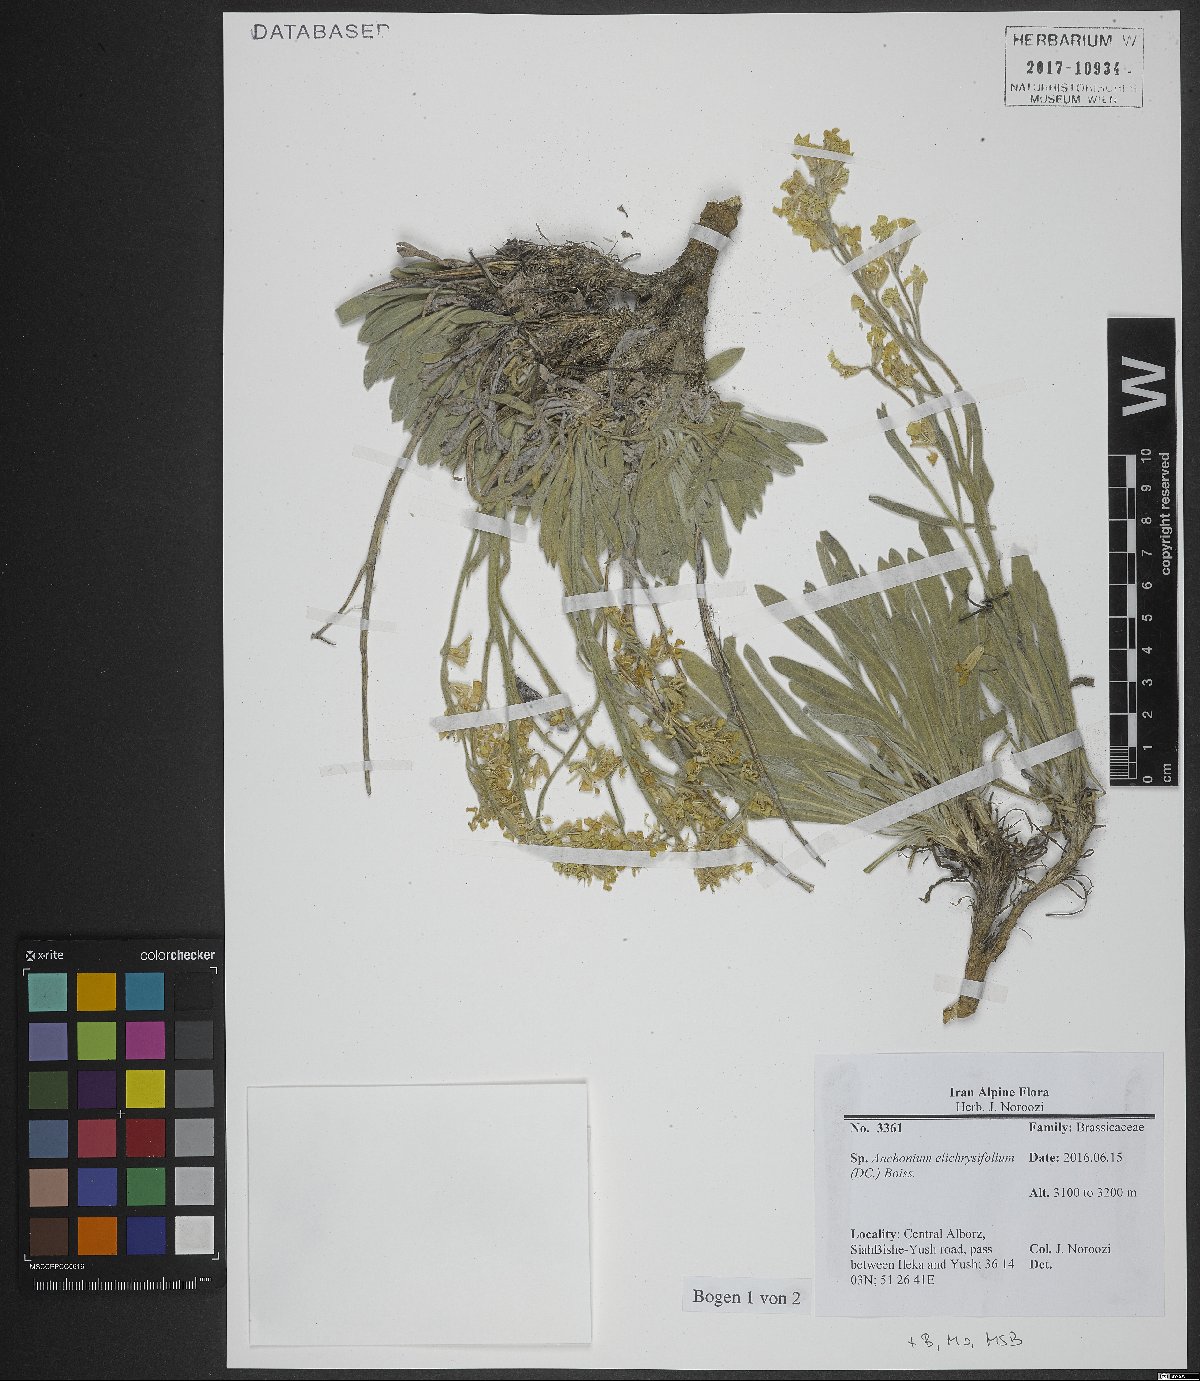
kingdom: Plantae
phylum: Tracheophyta
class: Magnoliopsida
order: Brassicales
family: Brassicaceae
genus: Anchonium
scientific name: Anchonium elichrysifolium
